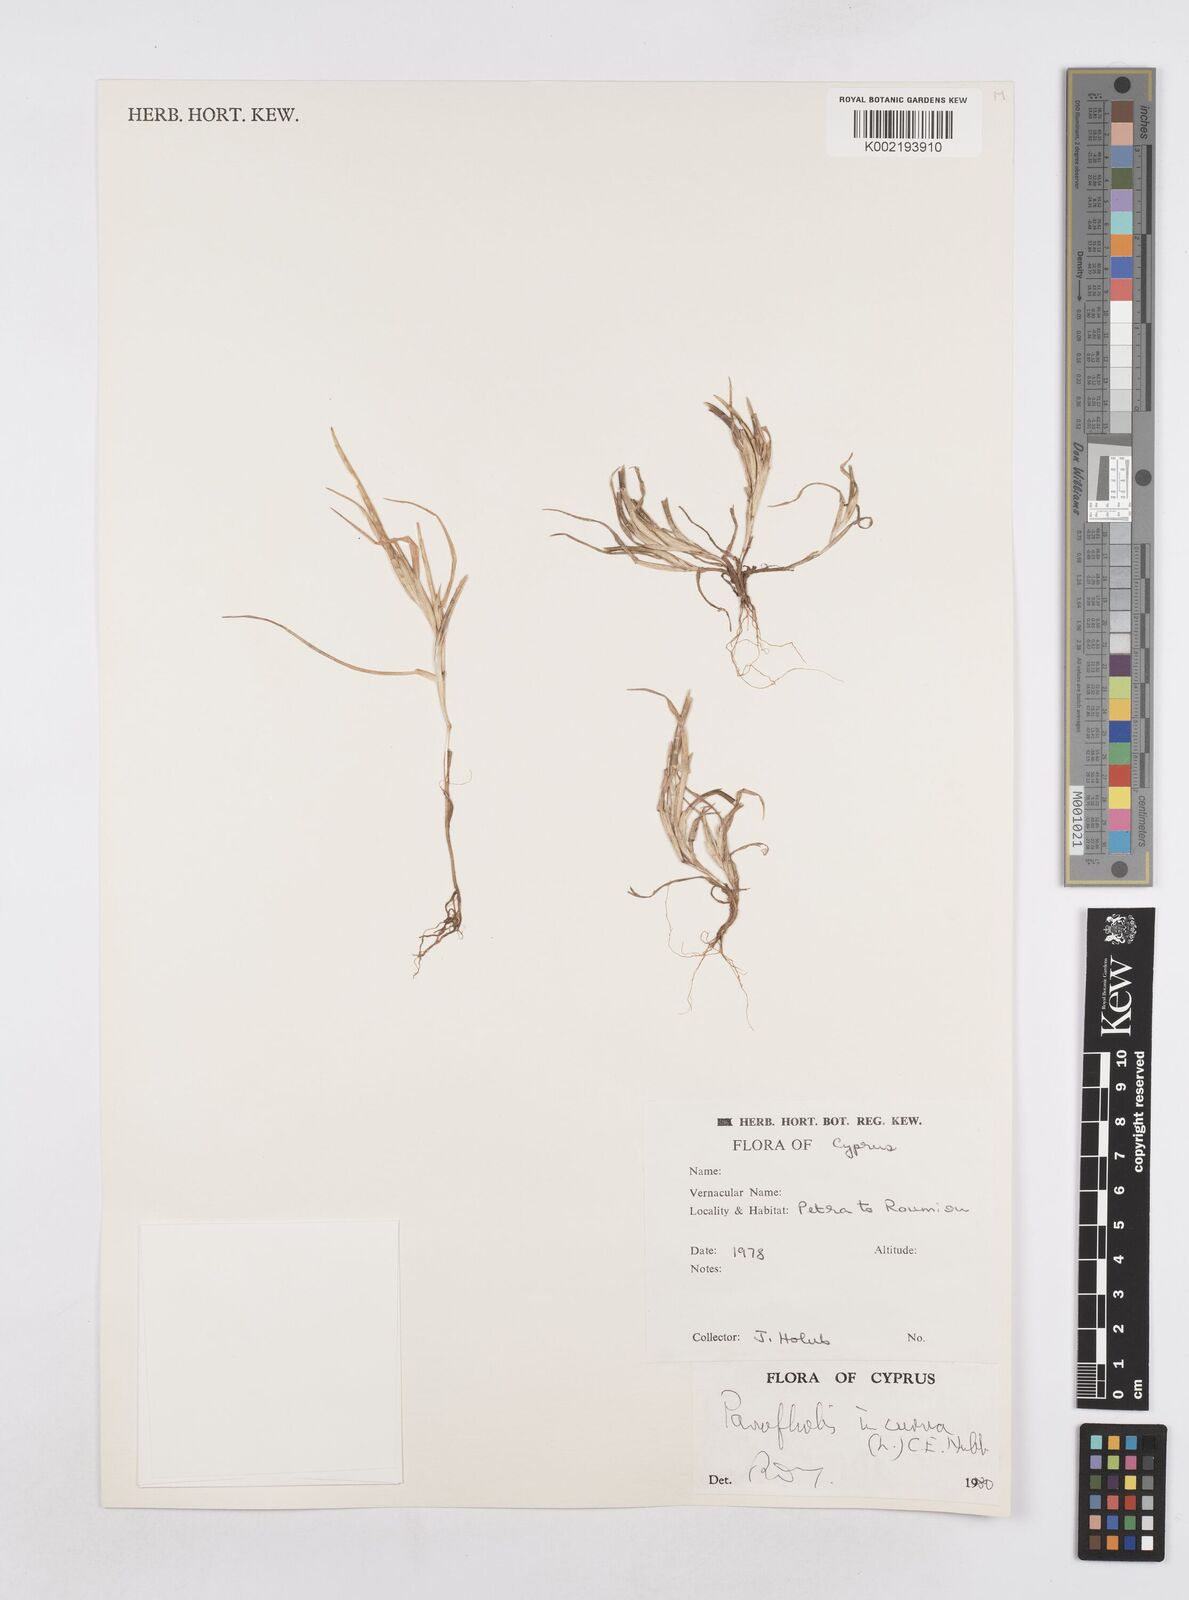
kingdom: Plantae
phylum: Tracheophyta
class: Liliopsida
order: Poales
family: Poaceae
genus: Parapholis
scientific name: Parapholis incurva
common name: Curved sicklegrass
